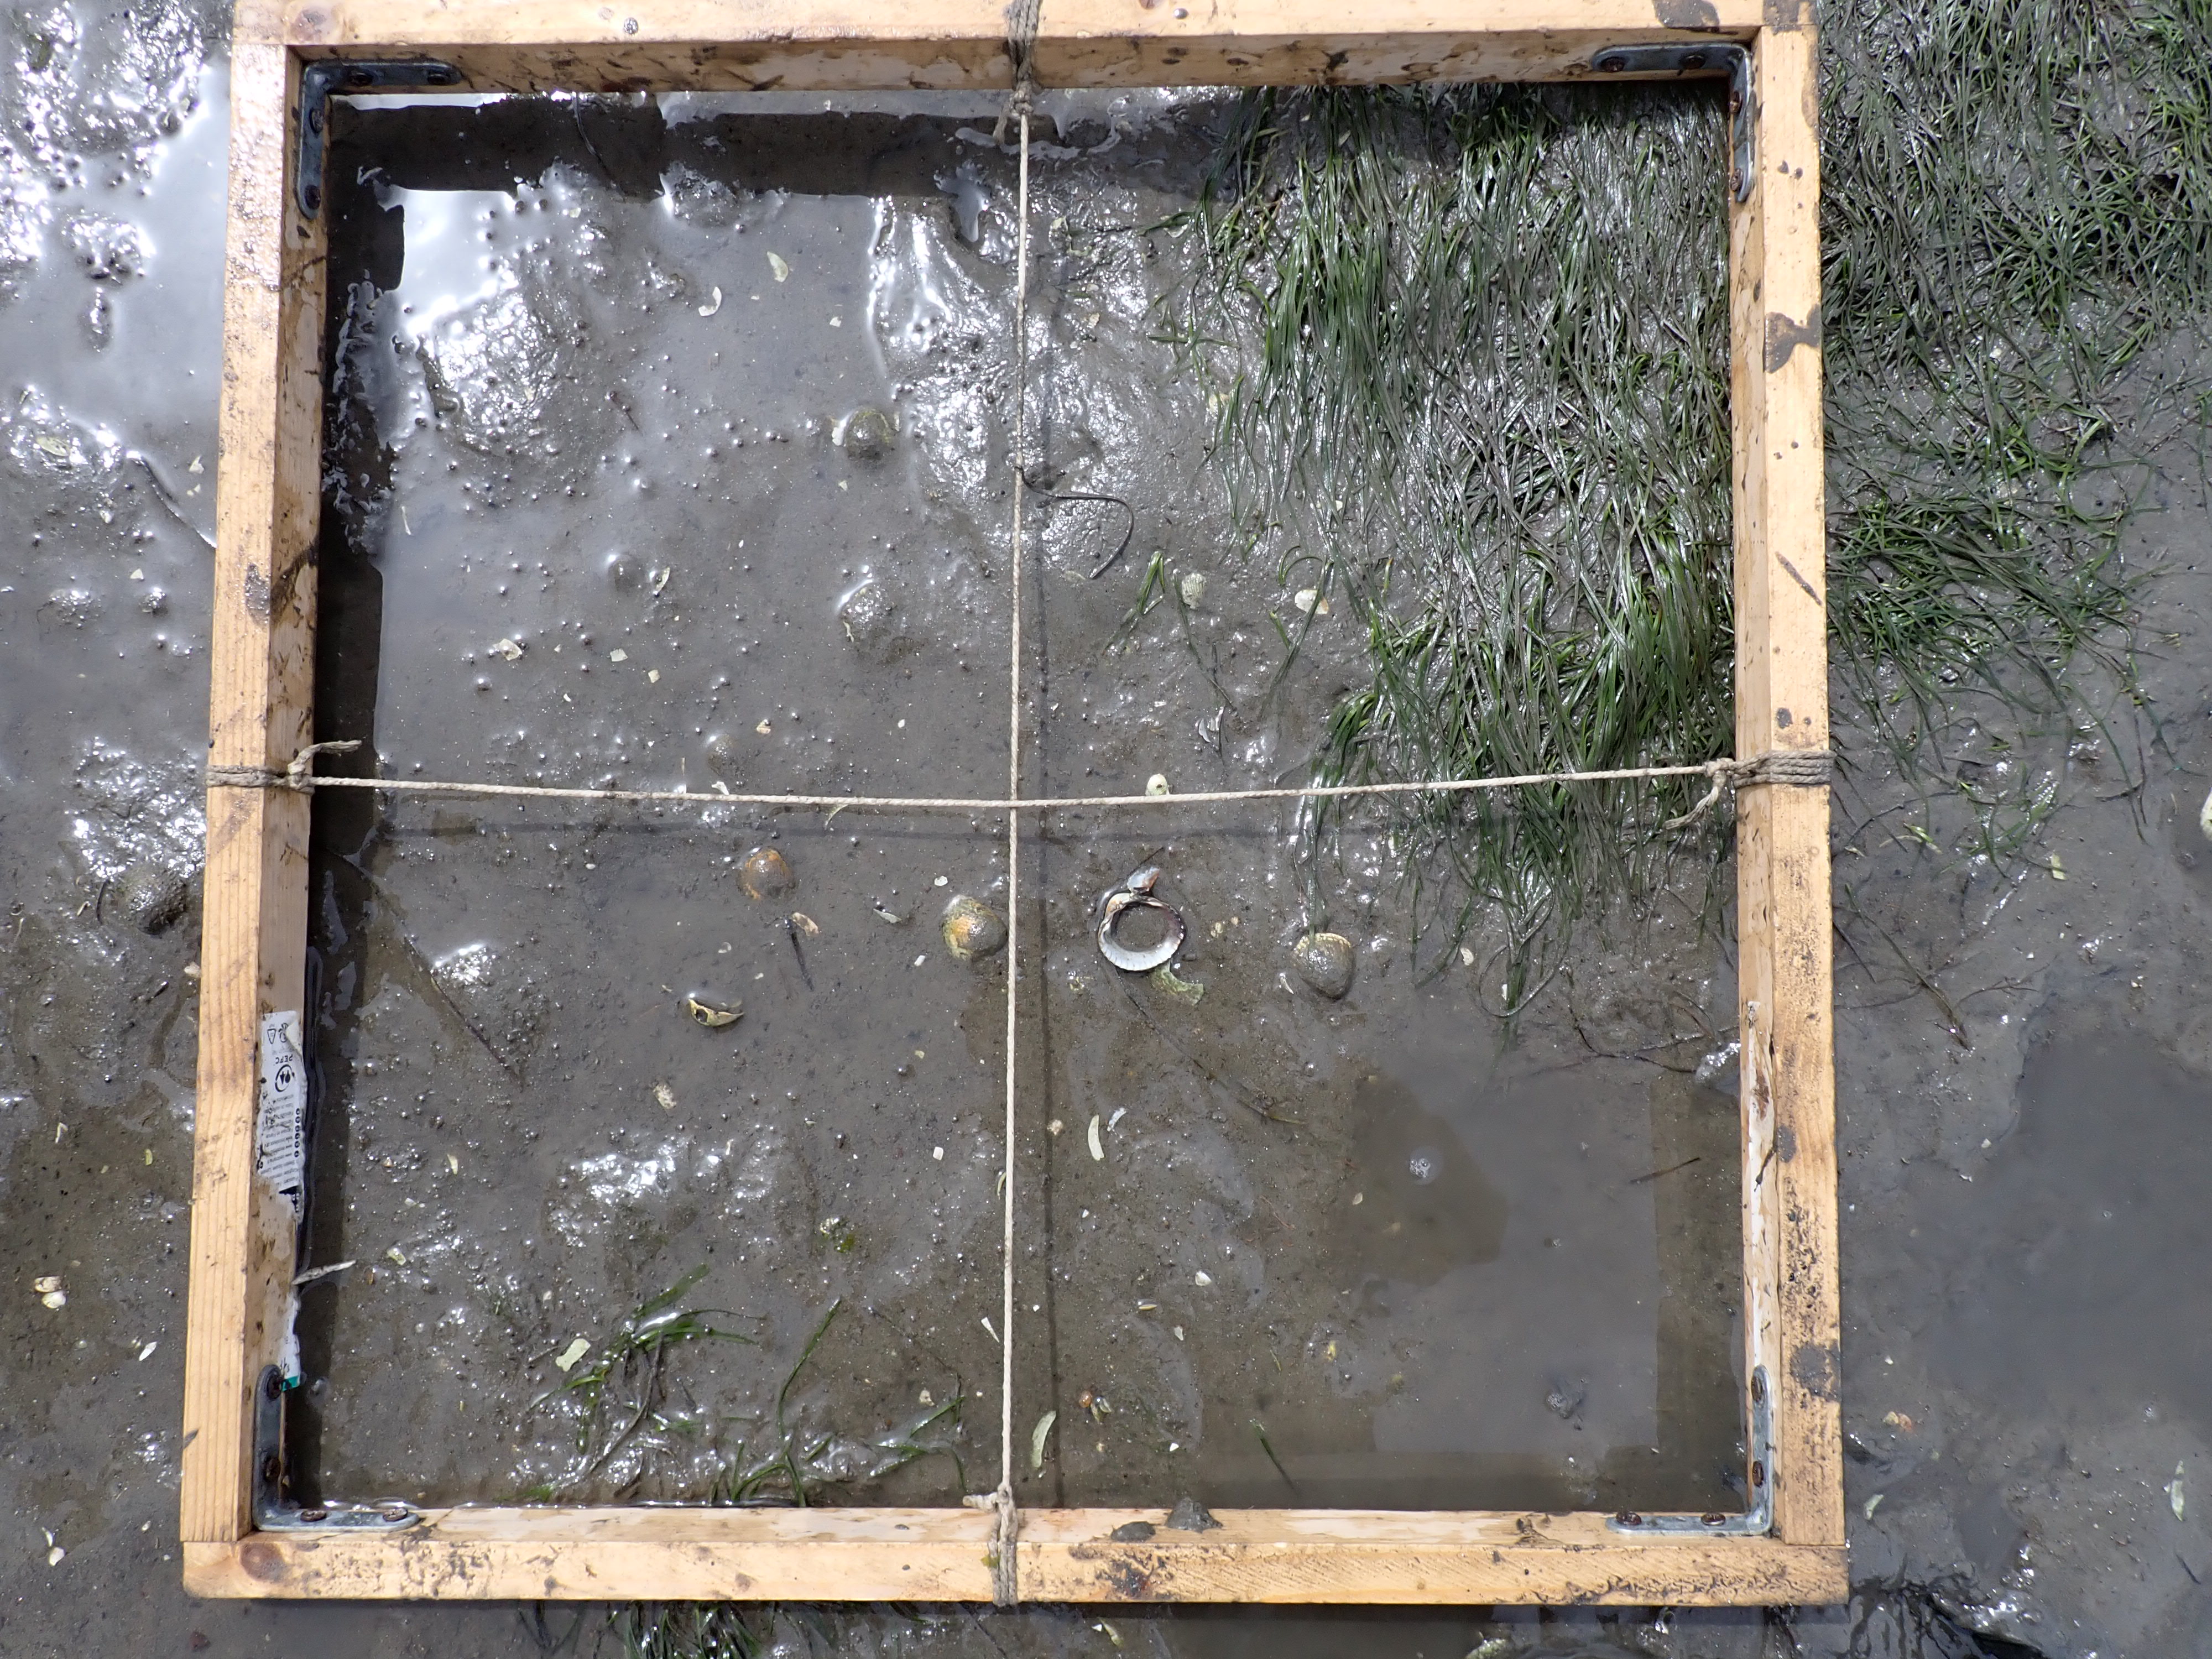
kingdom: Plantae
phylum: Tracheophyta
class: Liliopsida
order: Alismatales
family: Zosteraceae
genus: Zostera
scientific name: Zostera noltii
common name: Dwarf eelgrass
